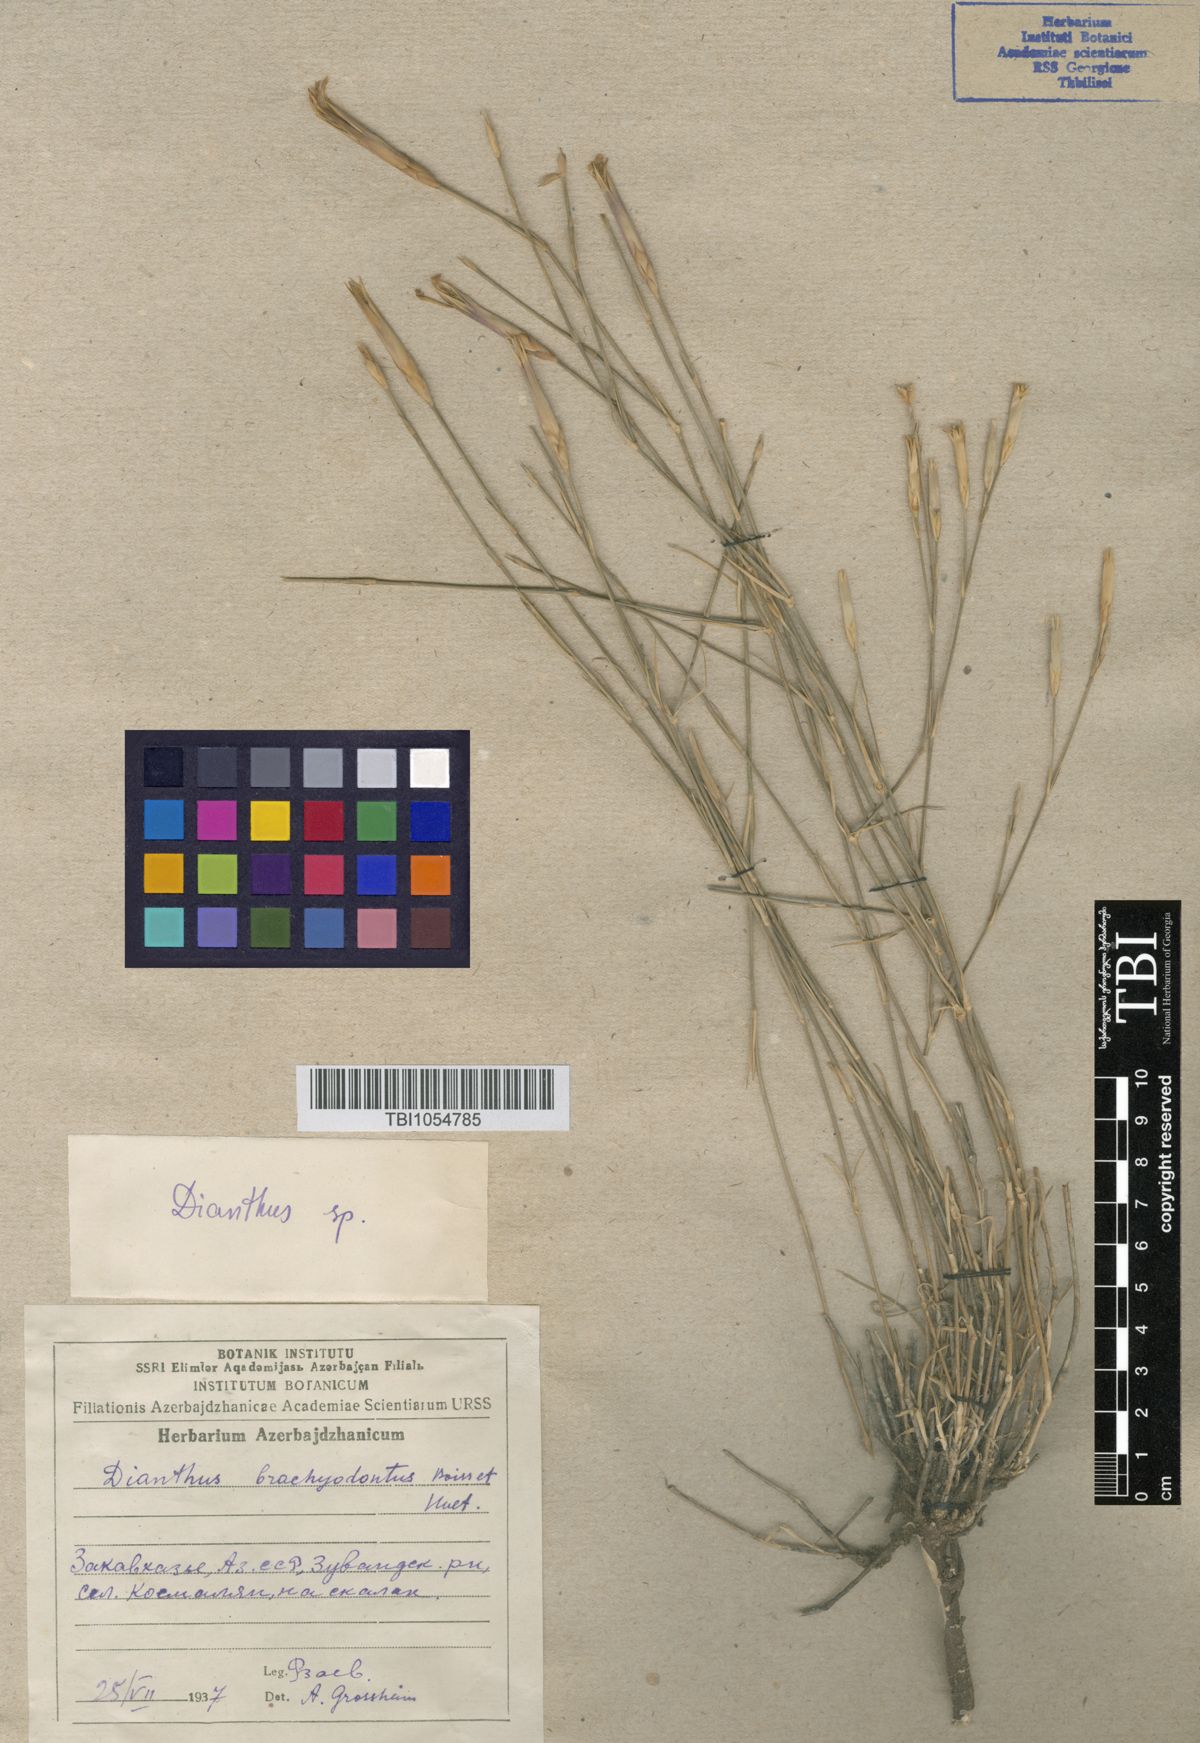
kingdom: Plantae
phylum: Tracheophyta
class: Magnoliopsida
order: Caryophyllales
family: Caryophyllaceae
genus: Dianthus
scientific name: Dianthus
